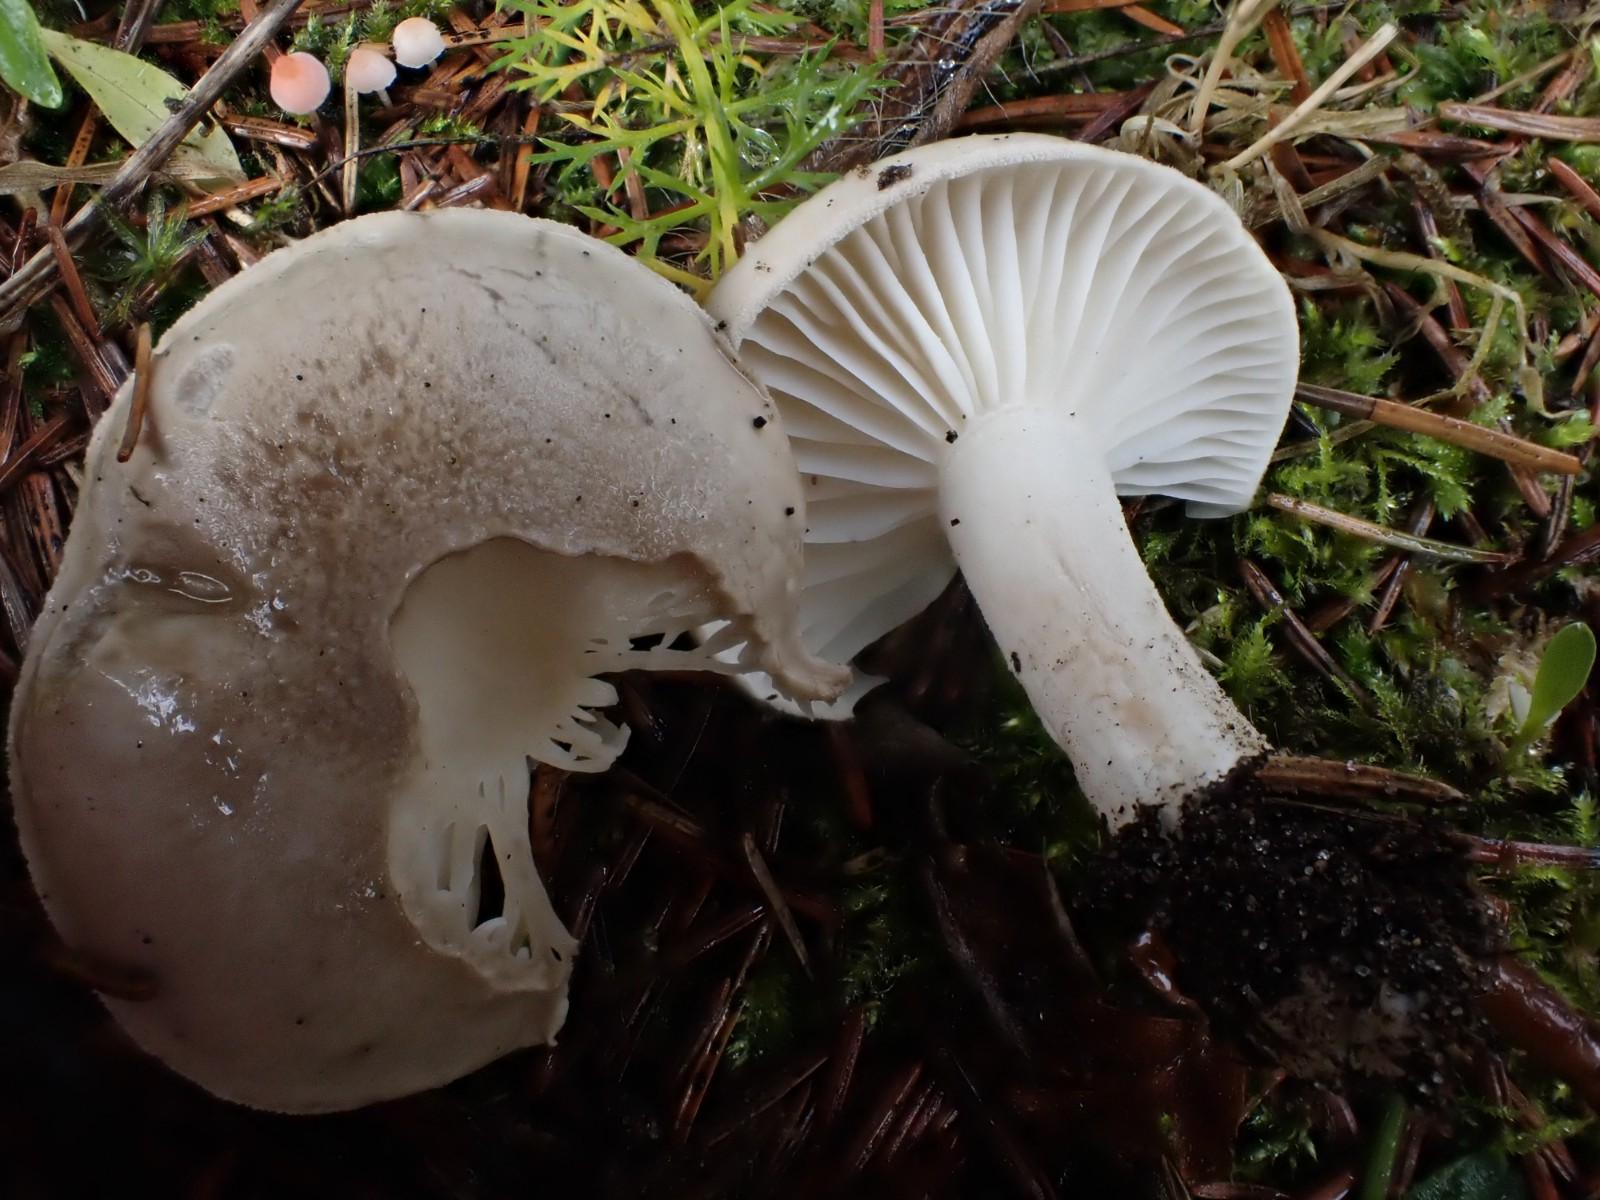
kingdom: Fungi
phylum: Basidiomycota
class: Agaricomycetes
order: Agaricales
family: Hygrophoraceae
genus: Hygrophorus
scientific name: Hygrophorus agathosmus
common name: vellugtende sneglehat
